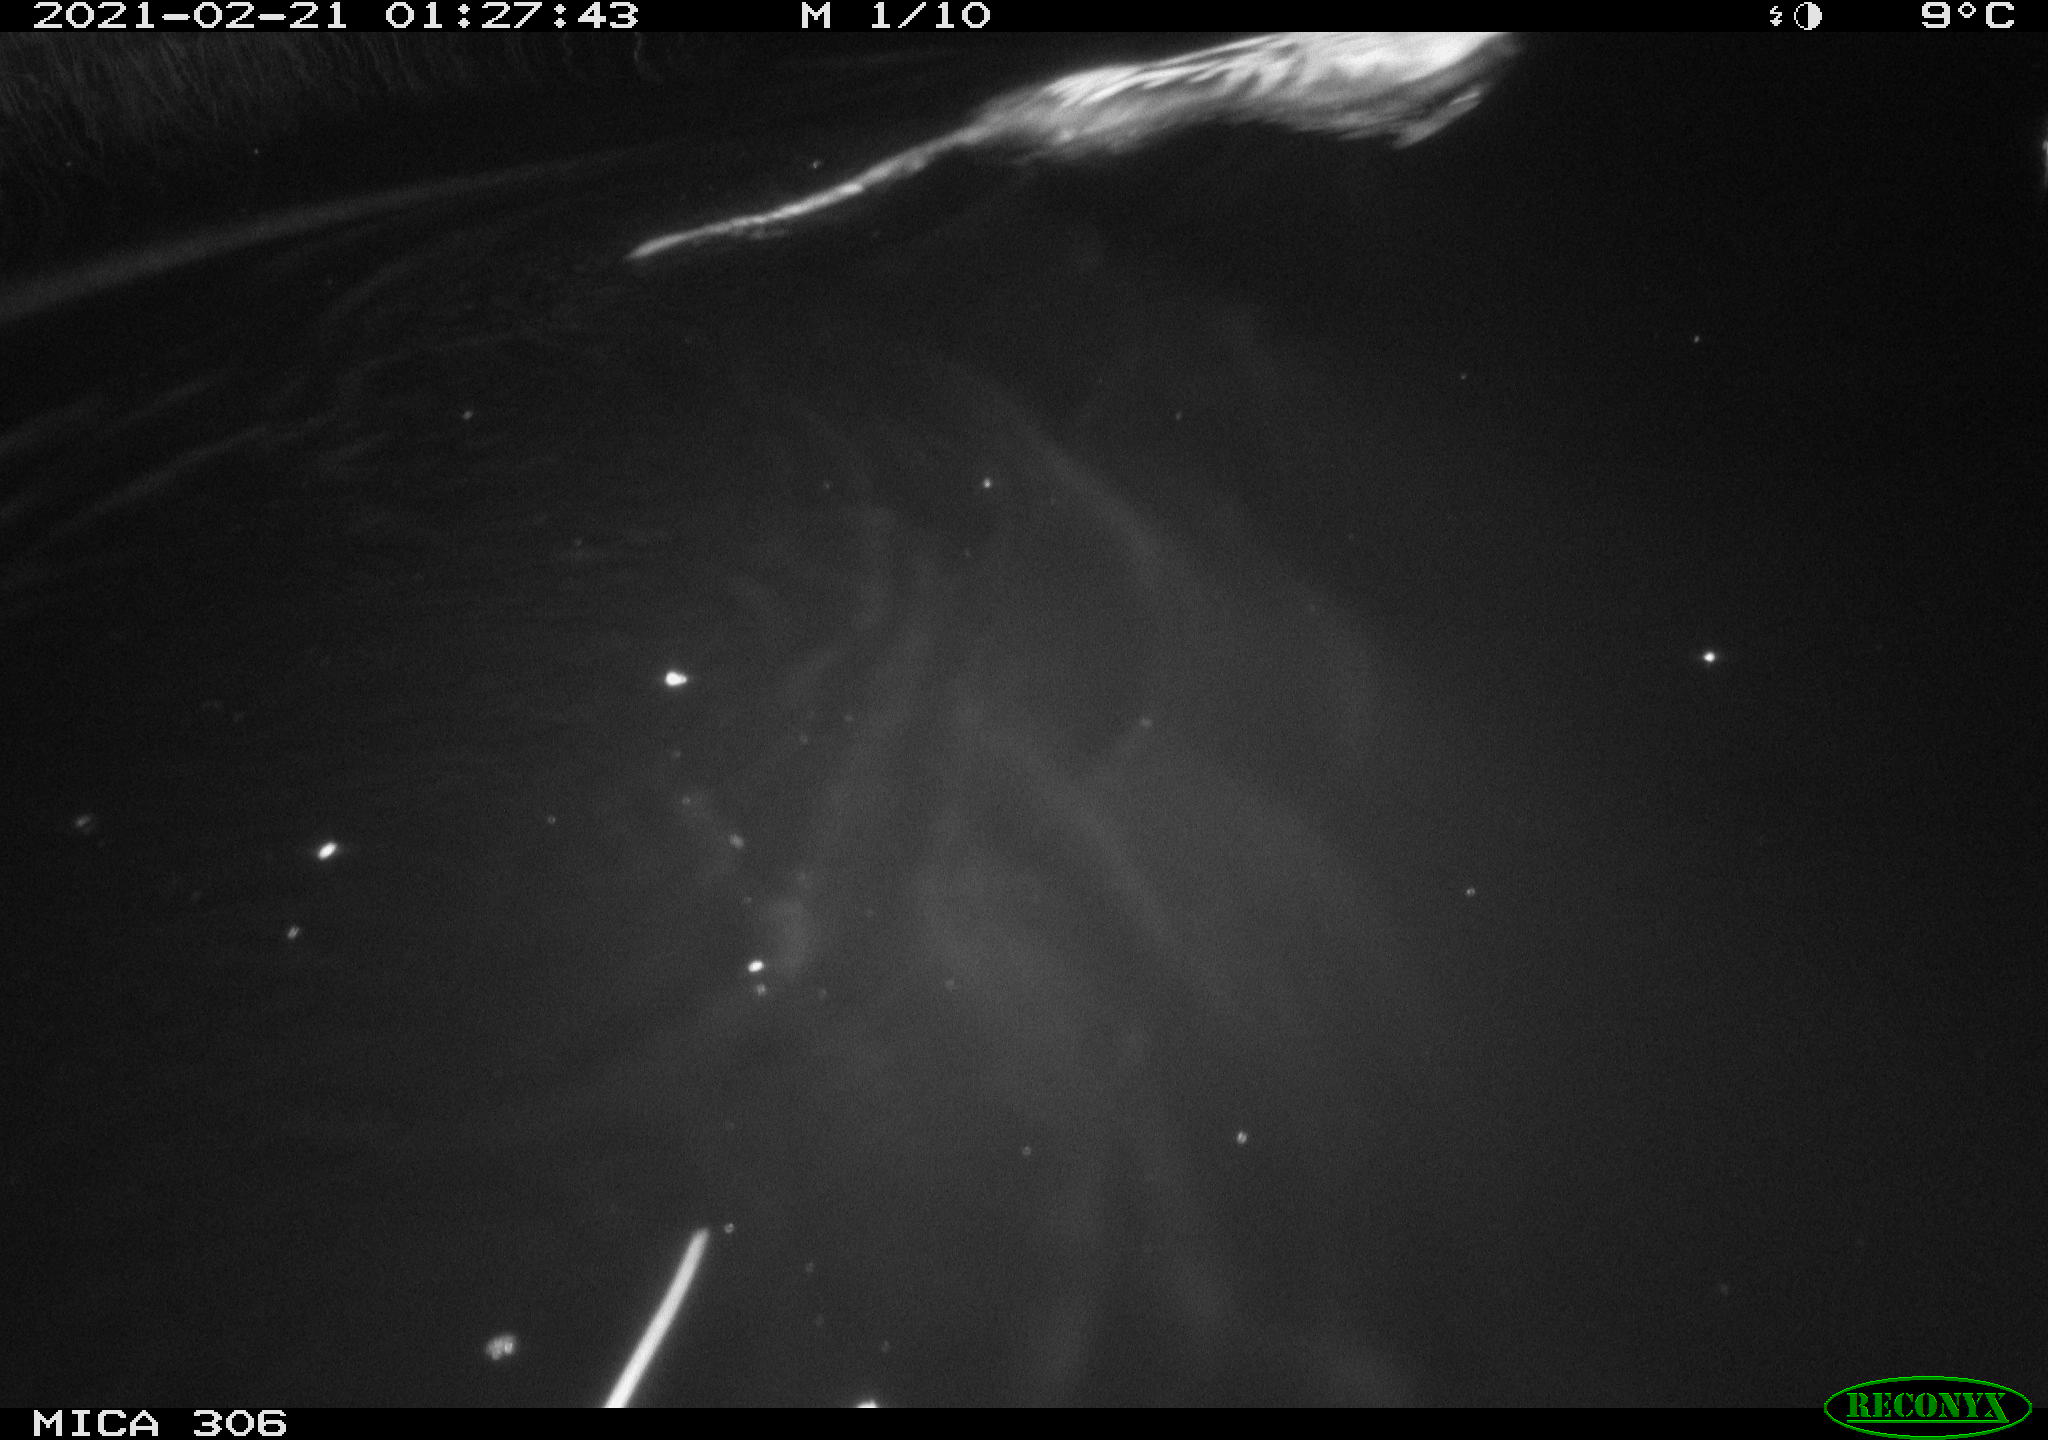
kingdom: Animalia
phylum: Chordata
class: Mammalia
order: Rodentia
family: Cricetidae
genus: Ondatra
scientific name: Ondatra zibethicus
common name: Muskrat
